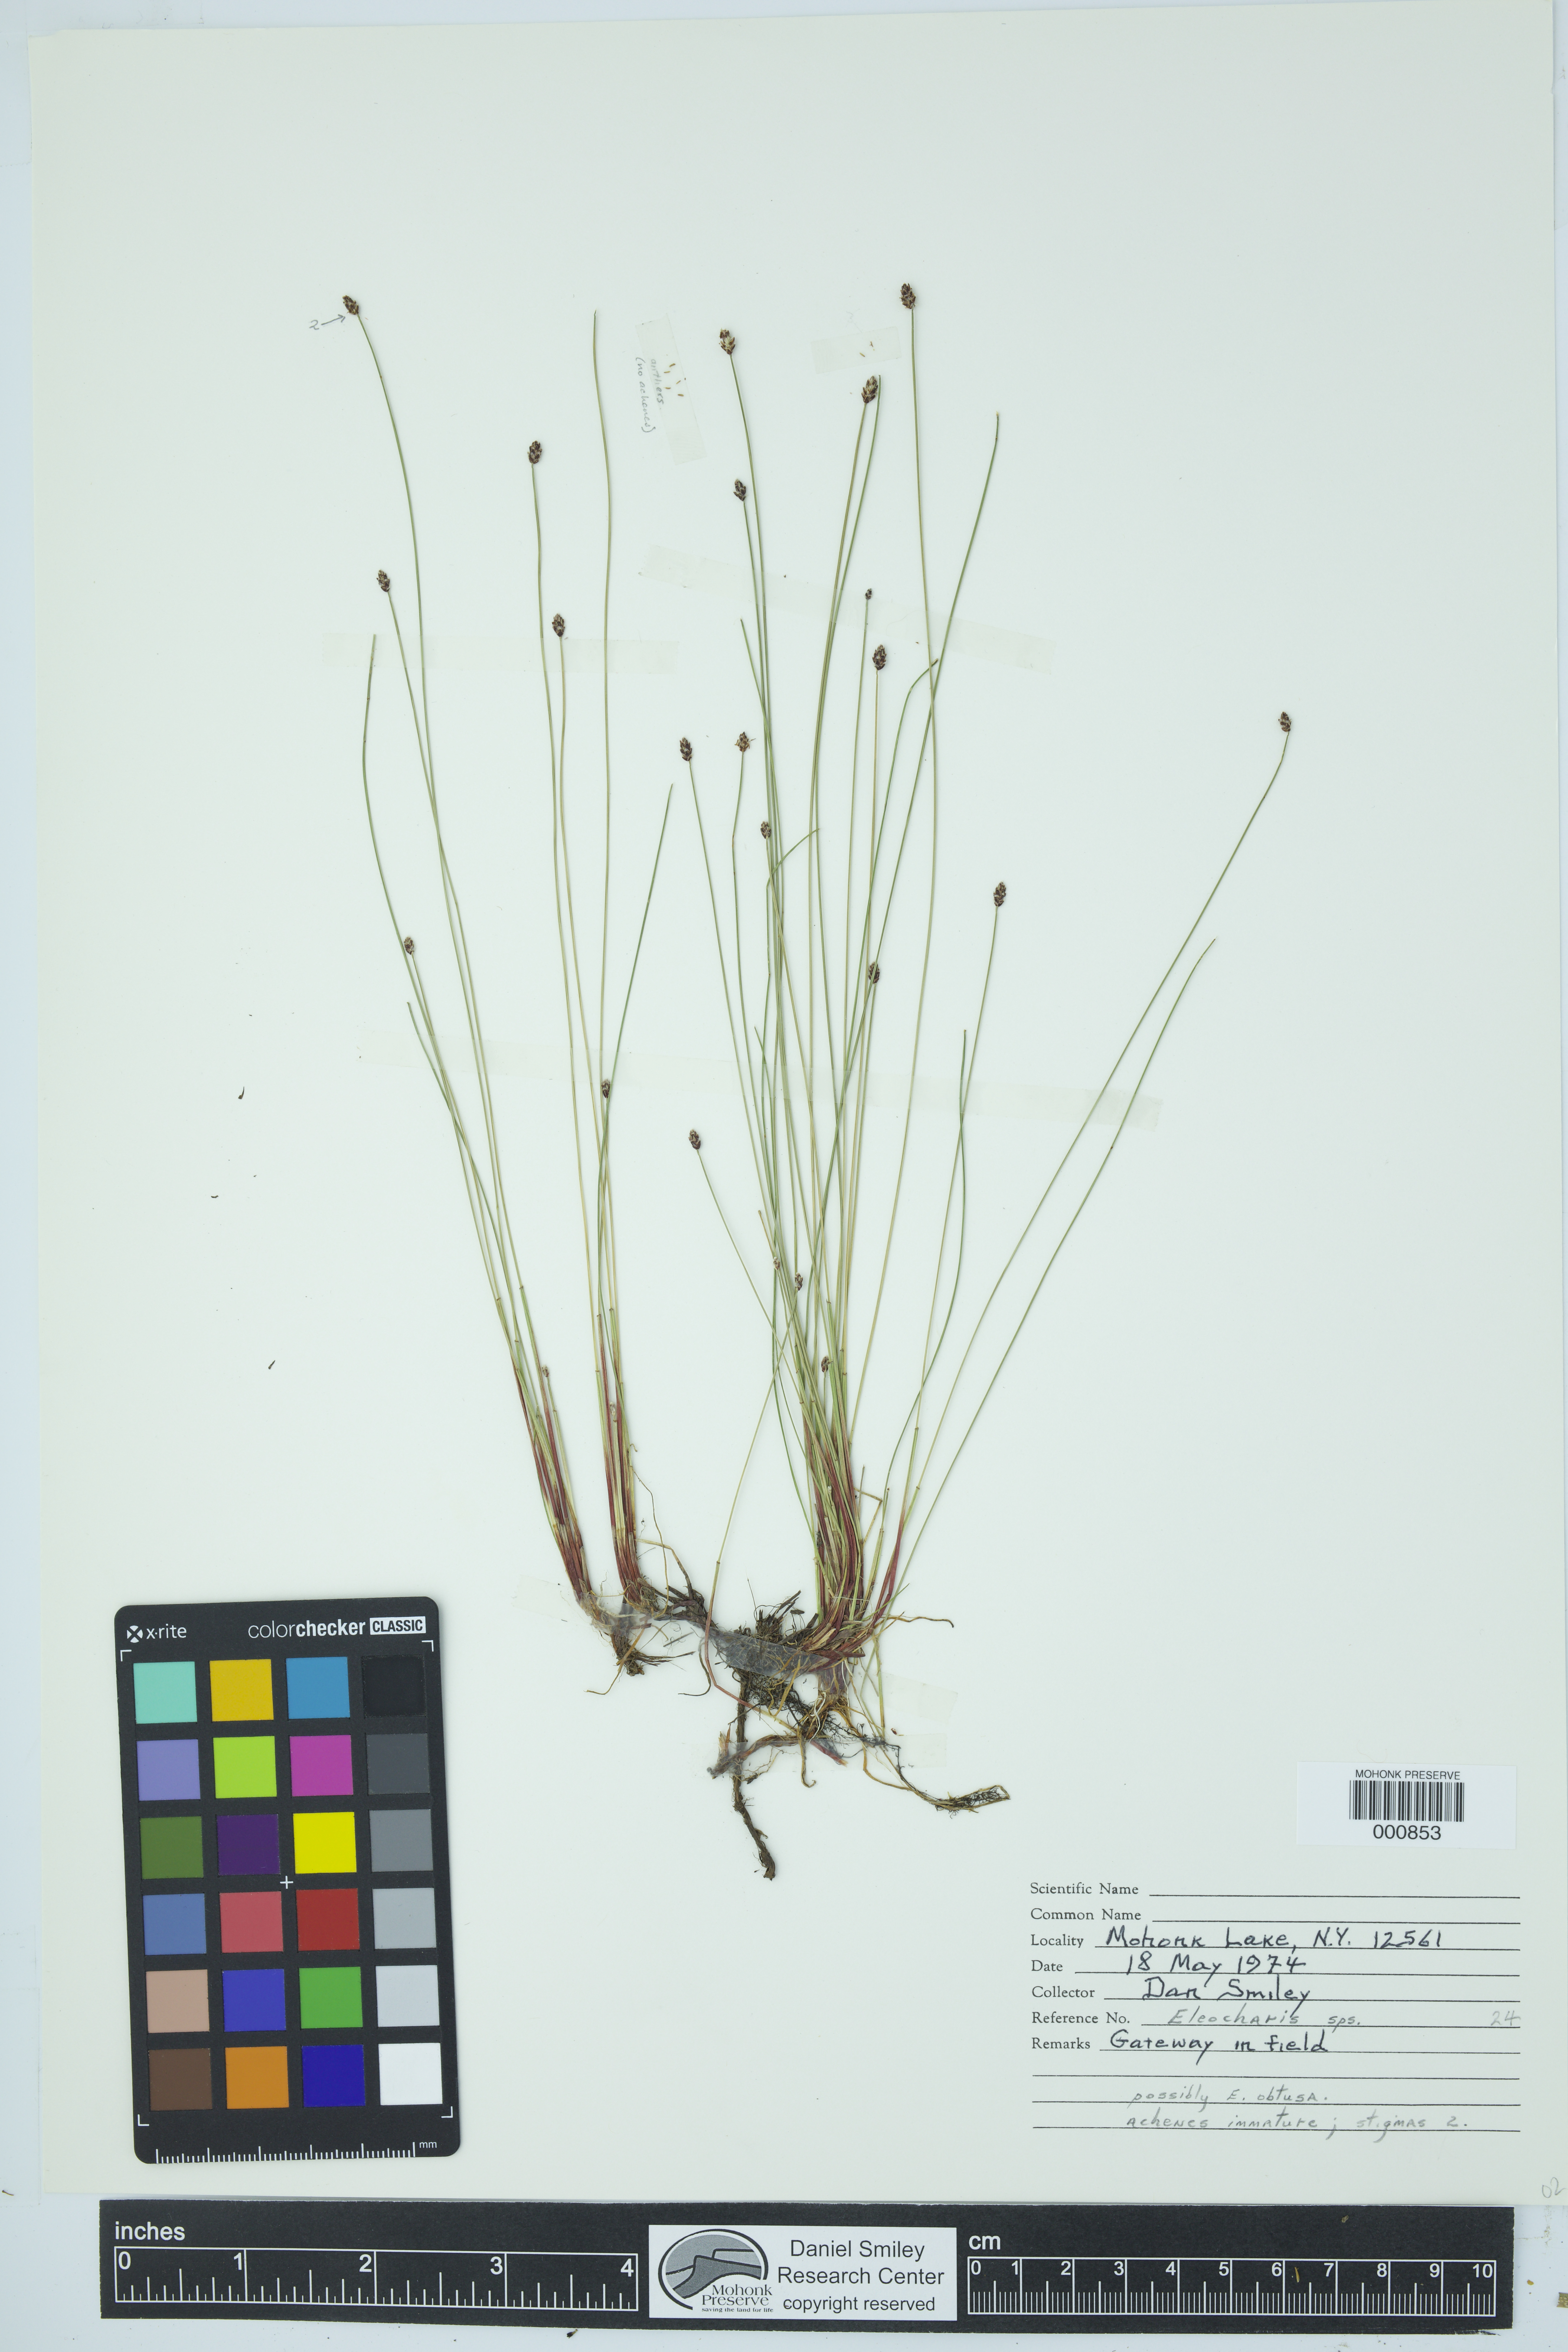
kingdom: Plantae
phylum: Tracheophyta
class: Liliopsida
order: Poales
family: Cyperaceae
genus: Eleocharis
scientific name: Eleocharis obtusa
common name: Blunt spikerush
